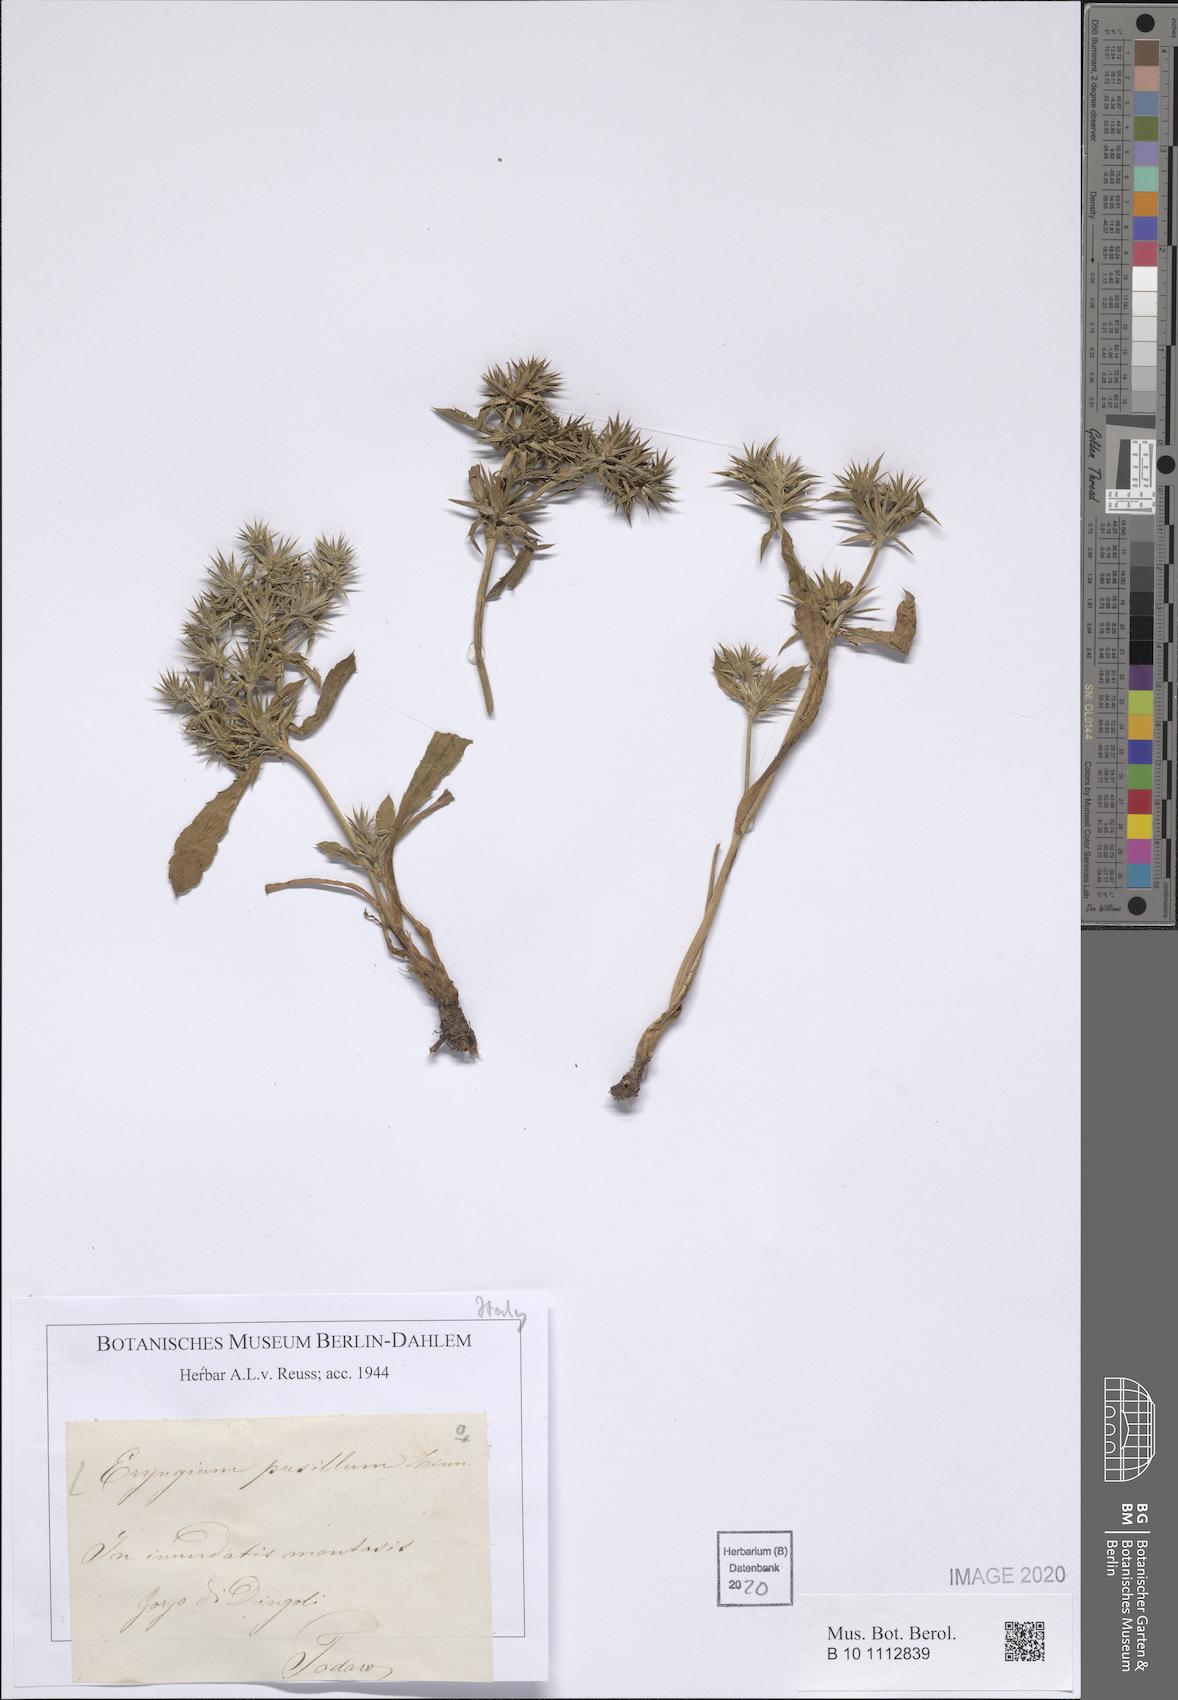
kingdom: Plantae
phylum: Tracheophyta
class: Magnoliopsida
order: Apiales
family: Apiaceae
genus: Eryngium
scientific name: Eryngium pusillum
